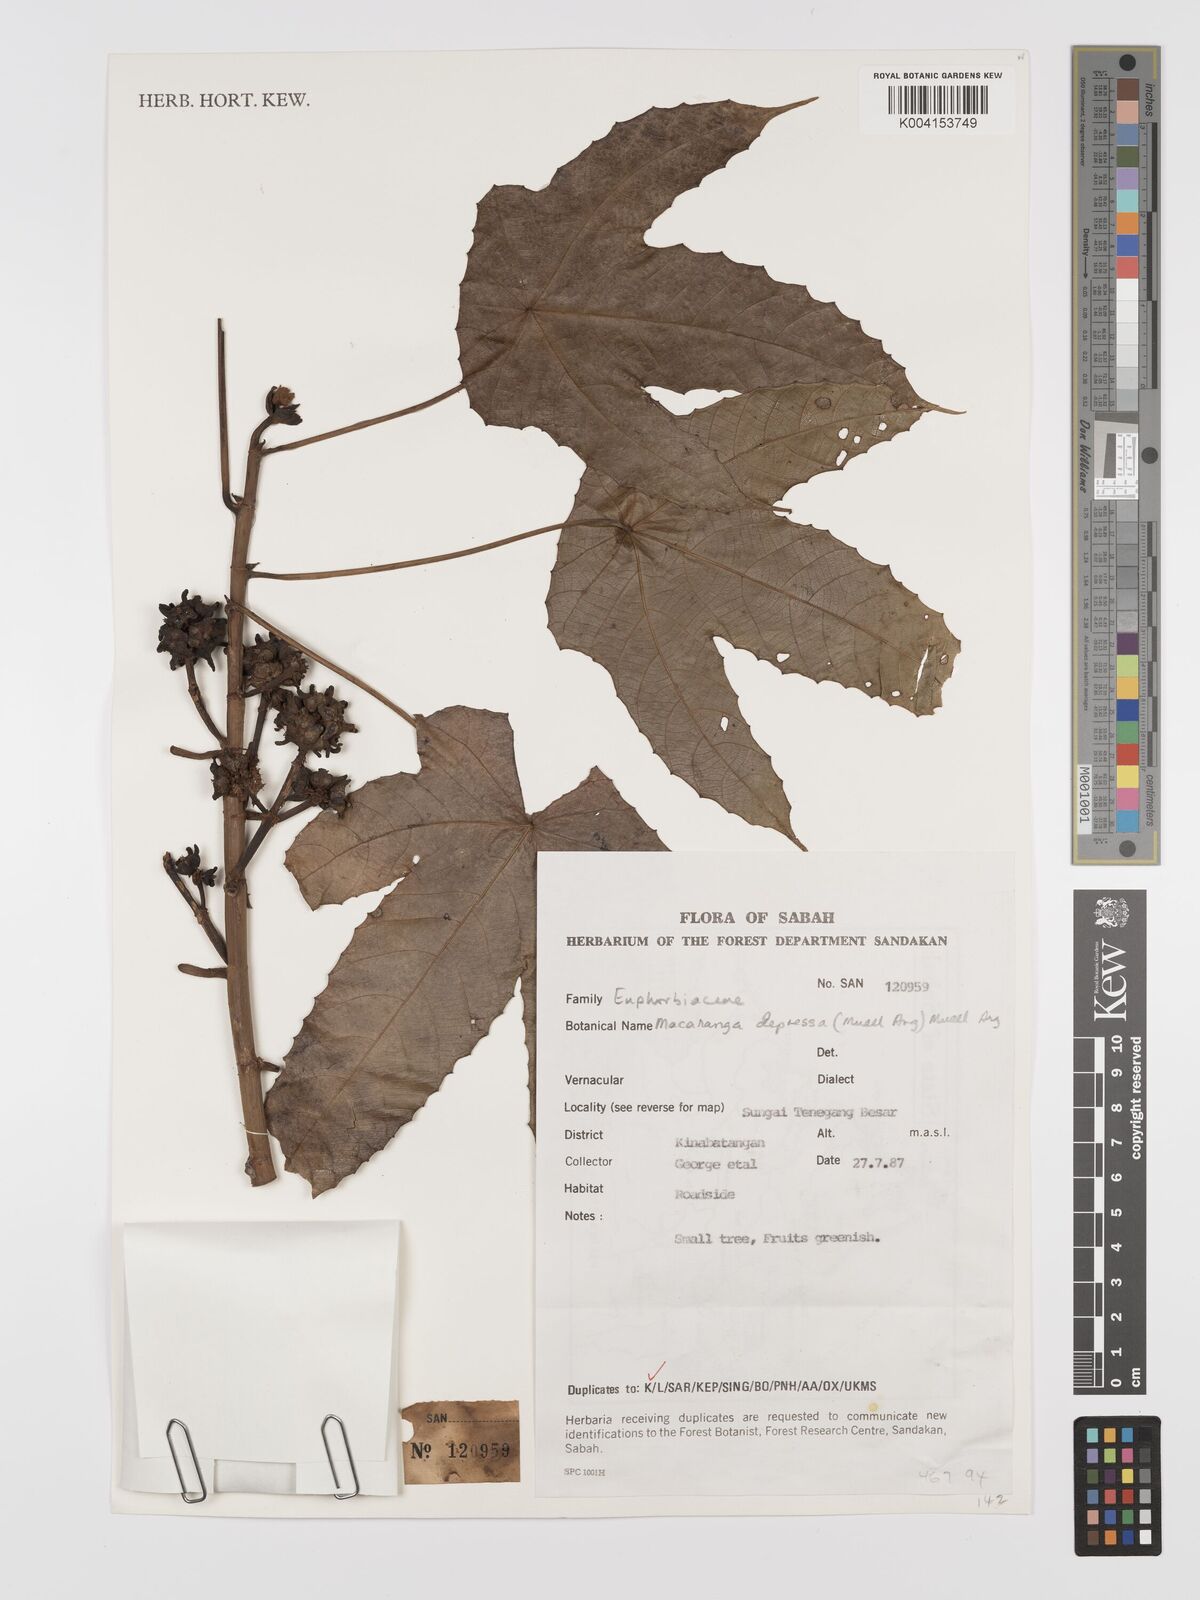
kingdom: Plantae
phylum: Tracheophyta
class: Magnoliopsida
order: Malpighiales
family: Euphorbiaceae
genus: Macaranga
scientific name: Macaranga depressa
